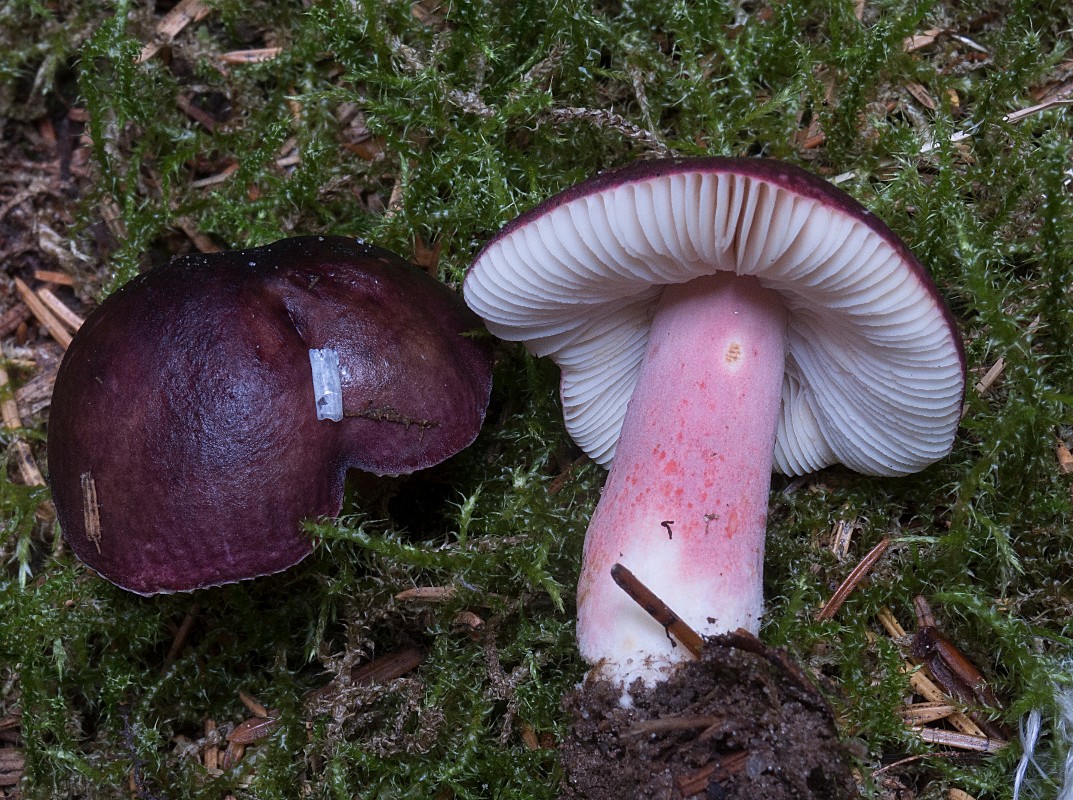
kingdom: Fungi
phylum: Basidiomycota
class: Agaricomycetes
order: Russulales
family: Russulaceae
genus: Russula
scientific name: Russula queletii
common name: Quélets skørhat
